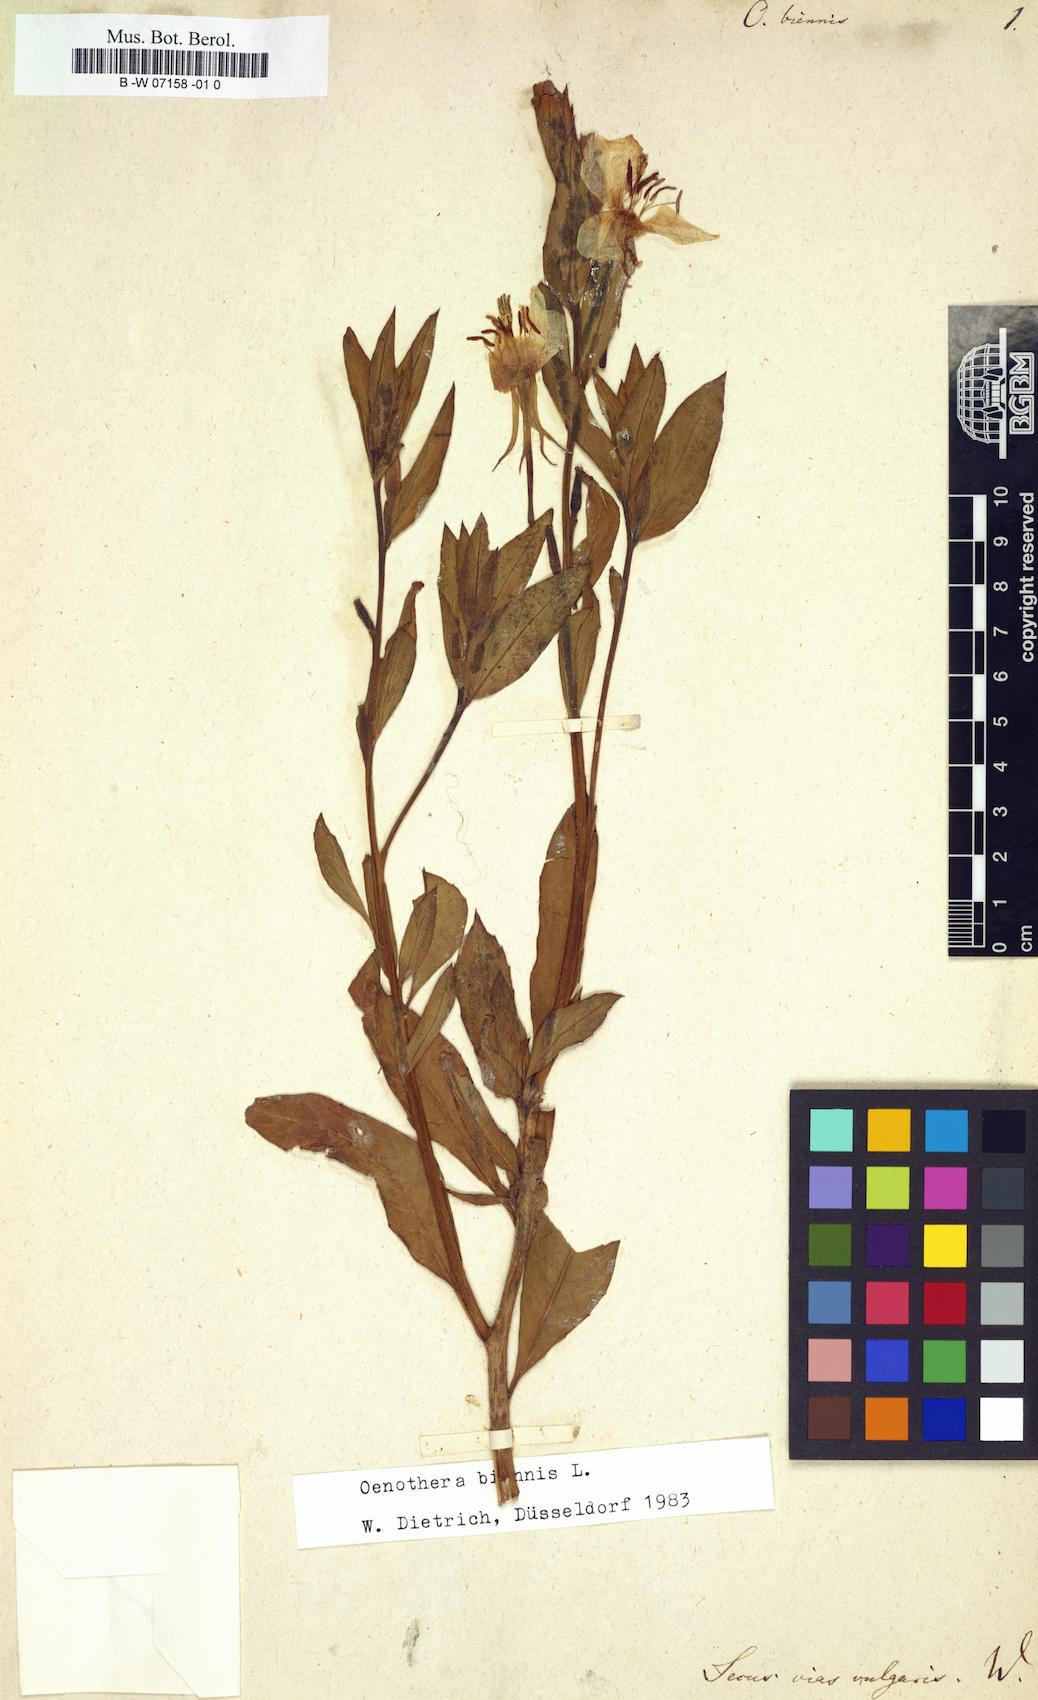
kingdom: Plantae
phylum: Tracheophyta
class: Magnoliopsida
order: Myrtales
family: Onagraceae
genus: Oenothera
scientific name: Oenothera biennis
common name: Common evening-primrose
